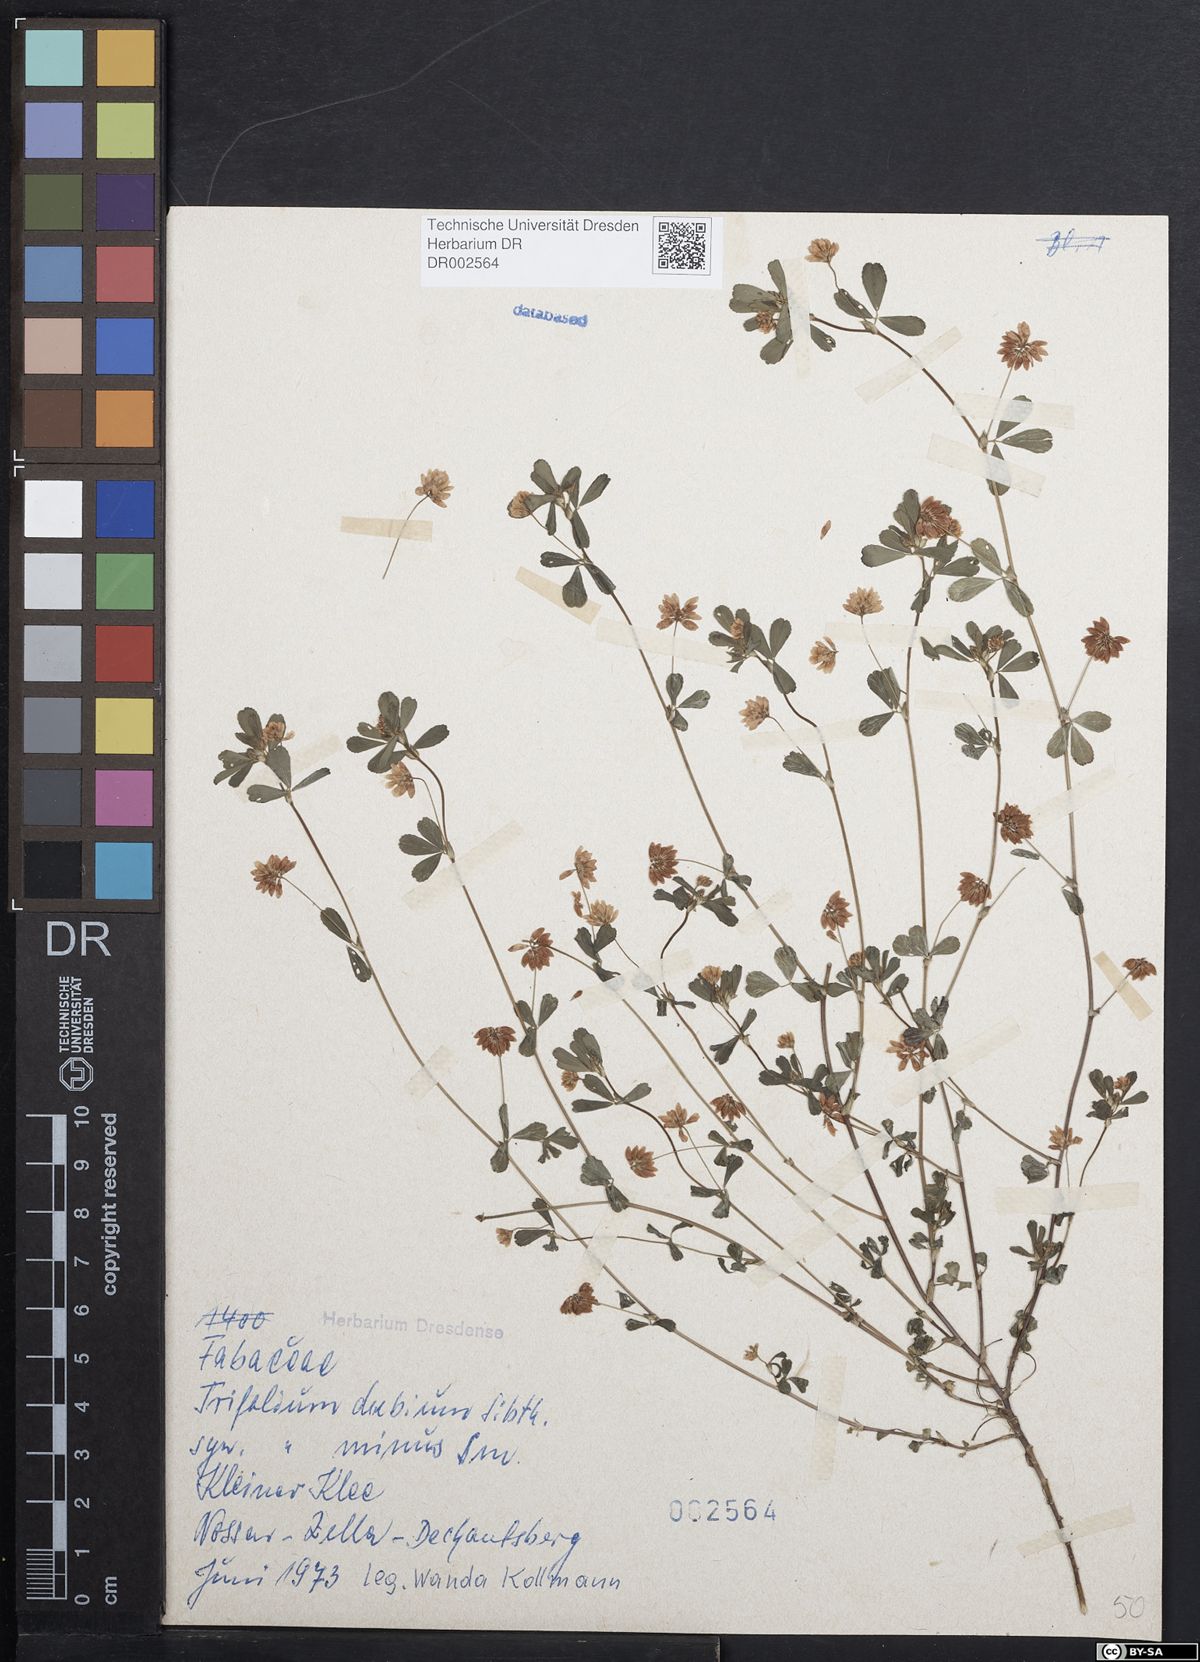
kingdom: Plantae
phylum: Tracheophyta
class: Magnoliopsida
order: Fabales
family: Fabaceae
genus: Trifolium
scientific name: Trifolium dubium
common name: Suckling clover
